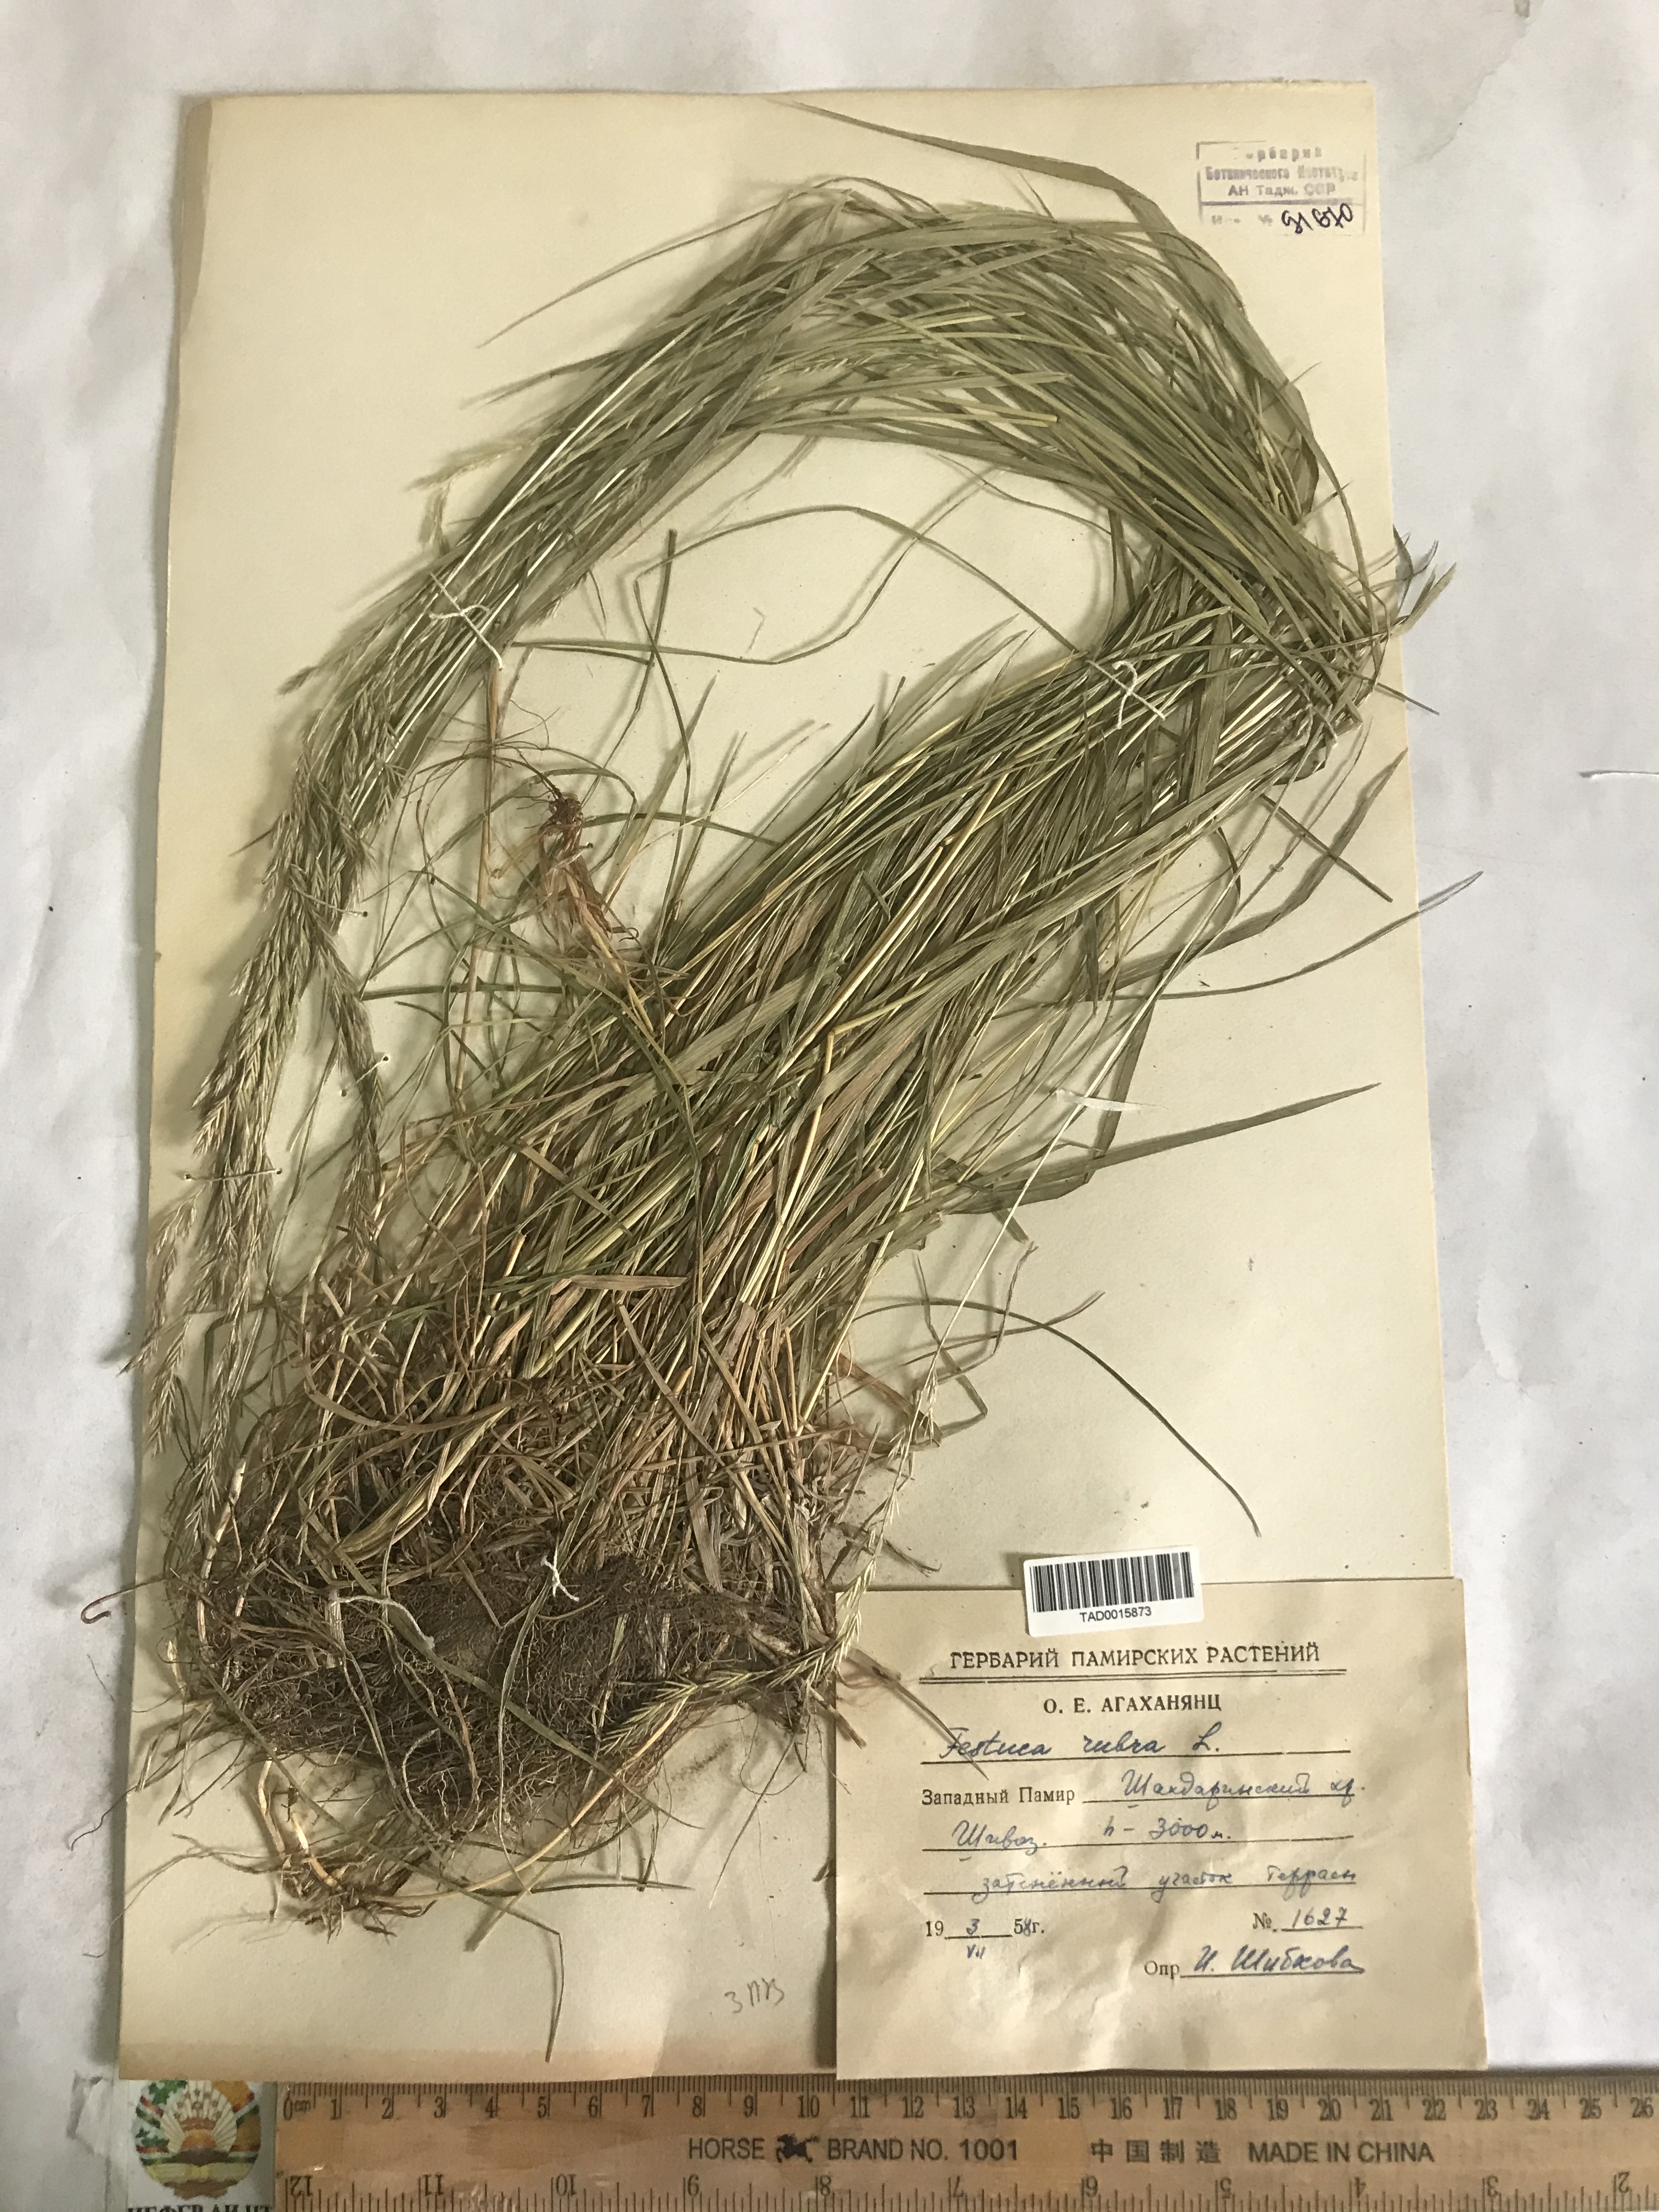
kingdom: Plantae
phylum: Tracheophyta
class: Liliopsida
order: Poales
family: Poaceae
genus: Festuca
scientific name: Festuca rubra
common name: Red fescue
